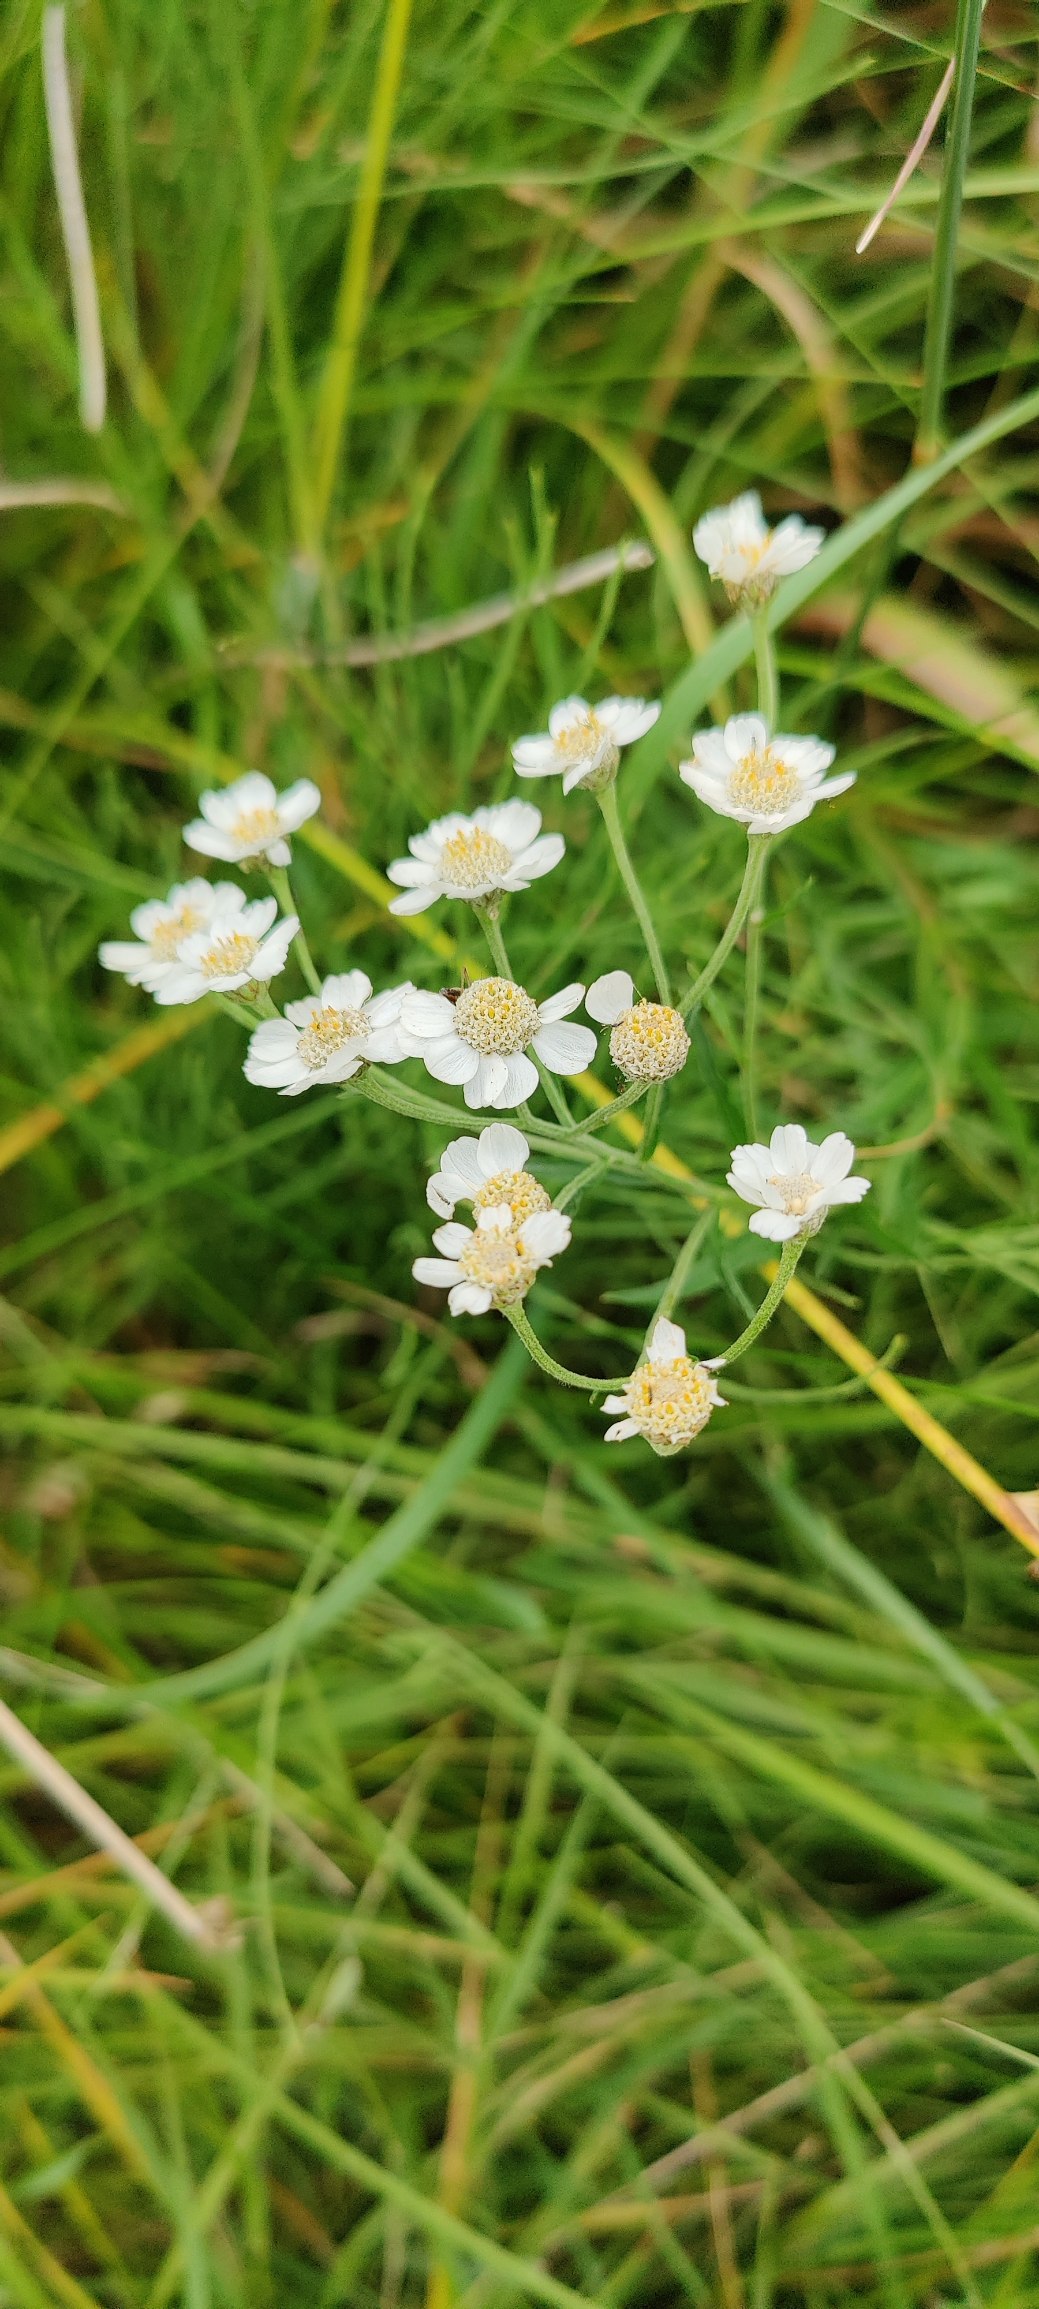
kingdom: Plantae
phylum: Tracheophyta
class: Magnoliopsida
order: Asterales
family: Asteraceae
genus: Achillea
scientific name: Achillea ptarmica
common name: Nyse-røllike
